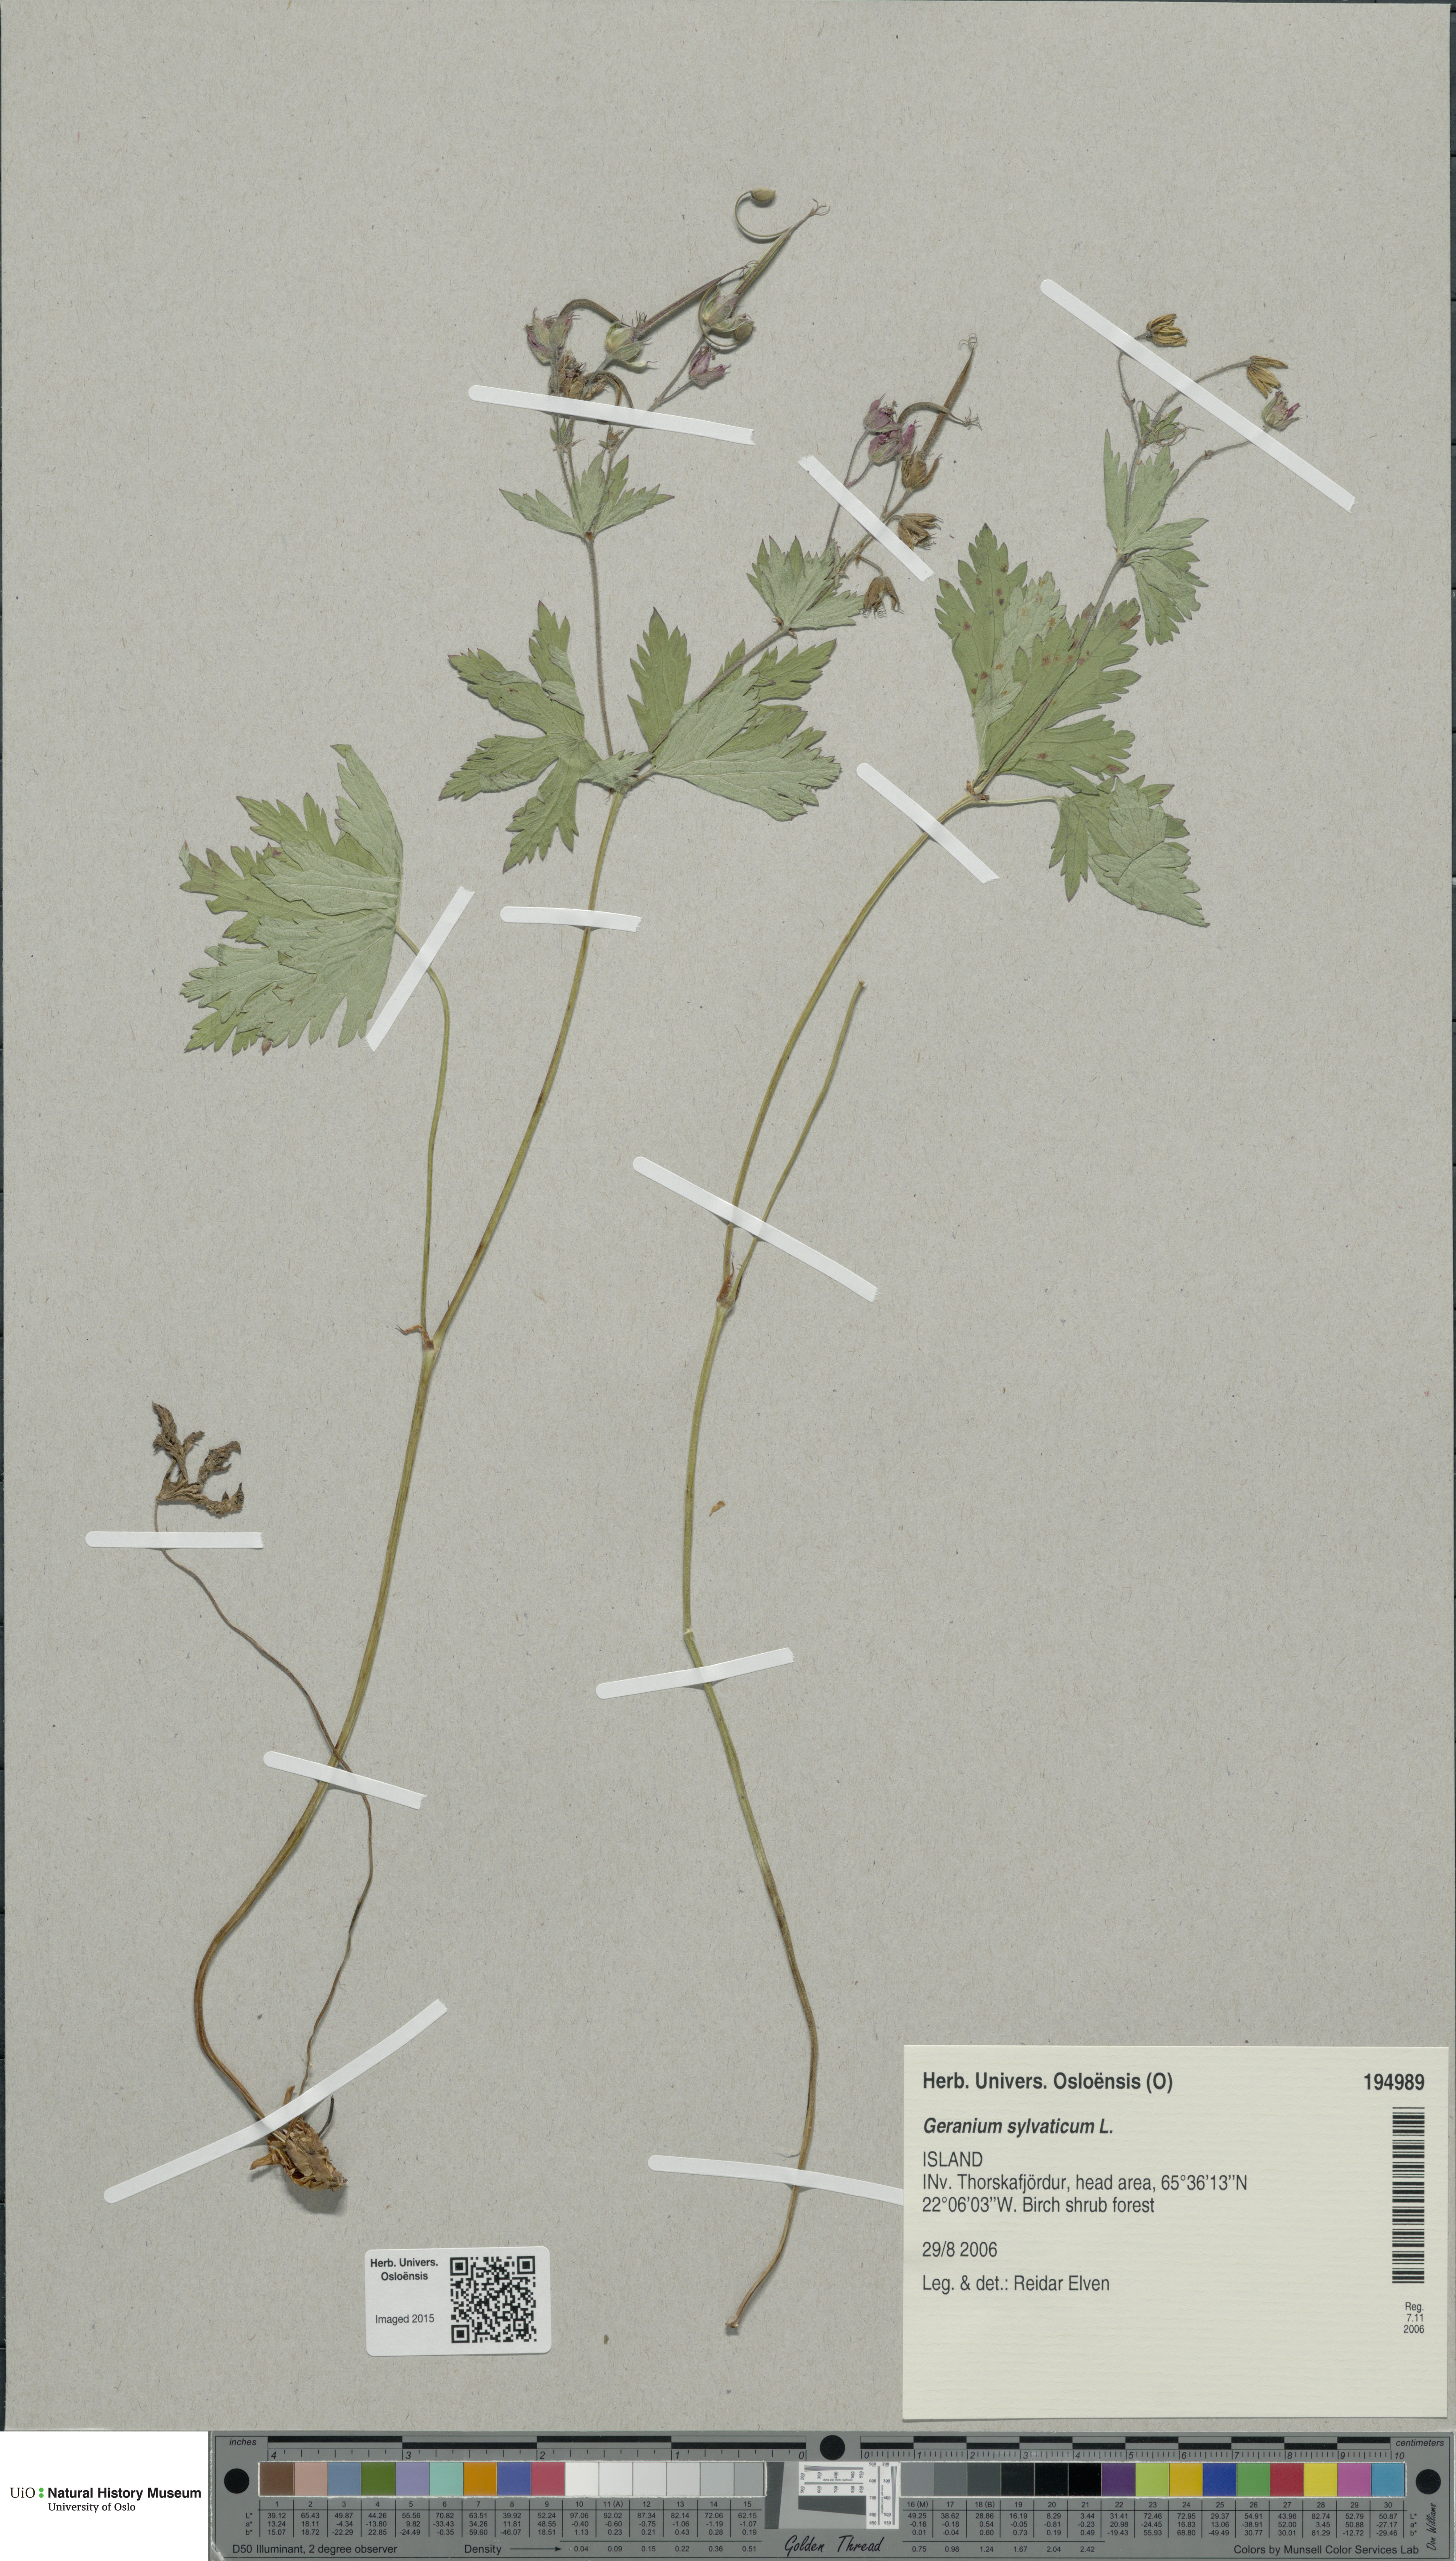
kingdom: Plantae
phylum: Tracheophyta
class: Magnoliopsida
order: Geraniales
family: Geraniaceae
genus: Geranium
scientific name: Geranium sylvaticum
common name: Wood crane's-bill
